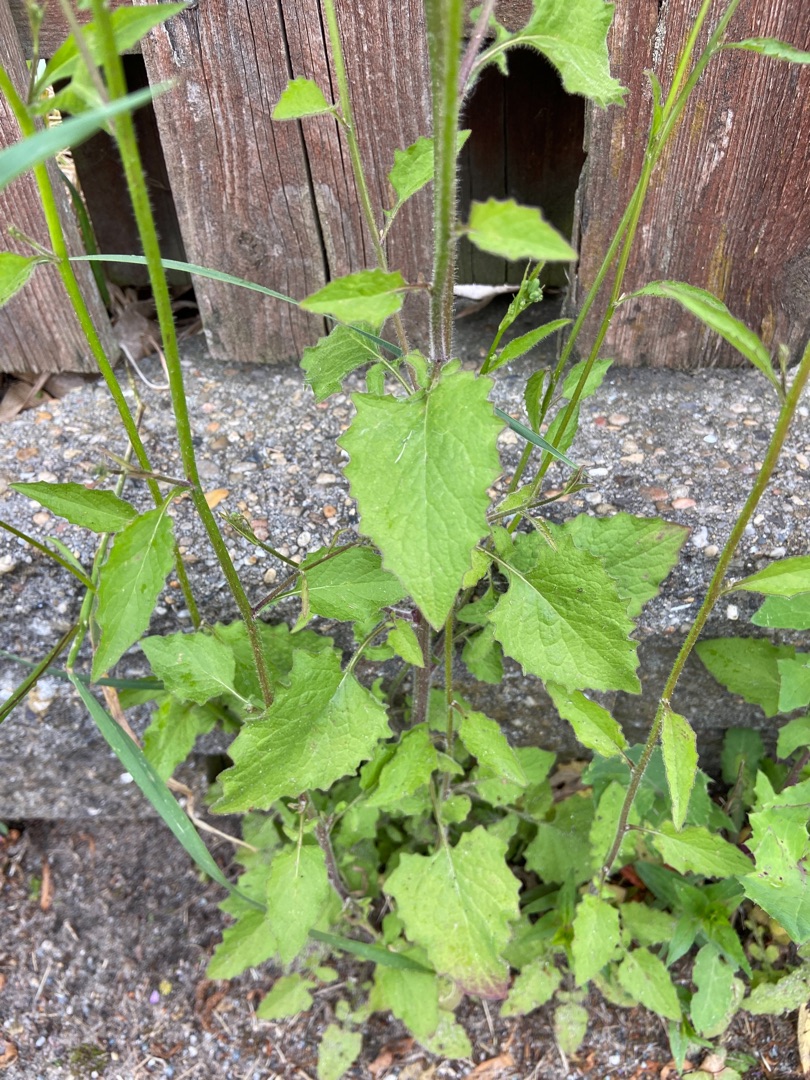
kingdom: Plantae
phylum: Tracheophyta
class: Magnoliopsida
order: Asterales
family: Asteraceae
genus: Lapsana
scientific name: Lapsana communis
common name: Haremad
